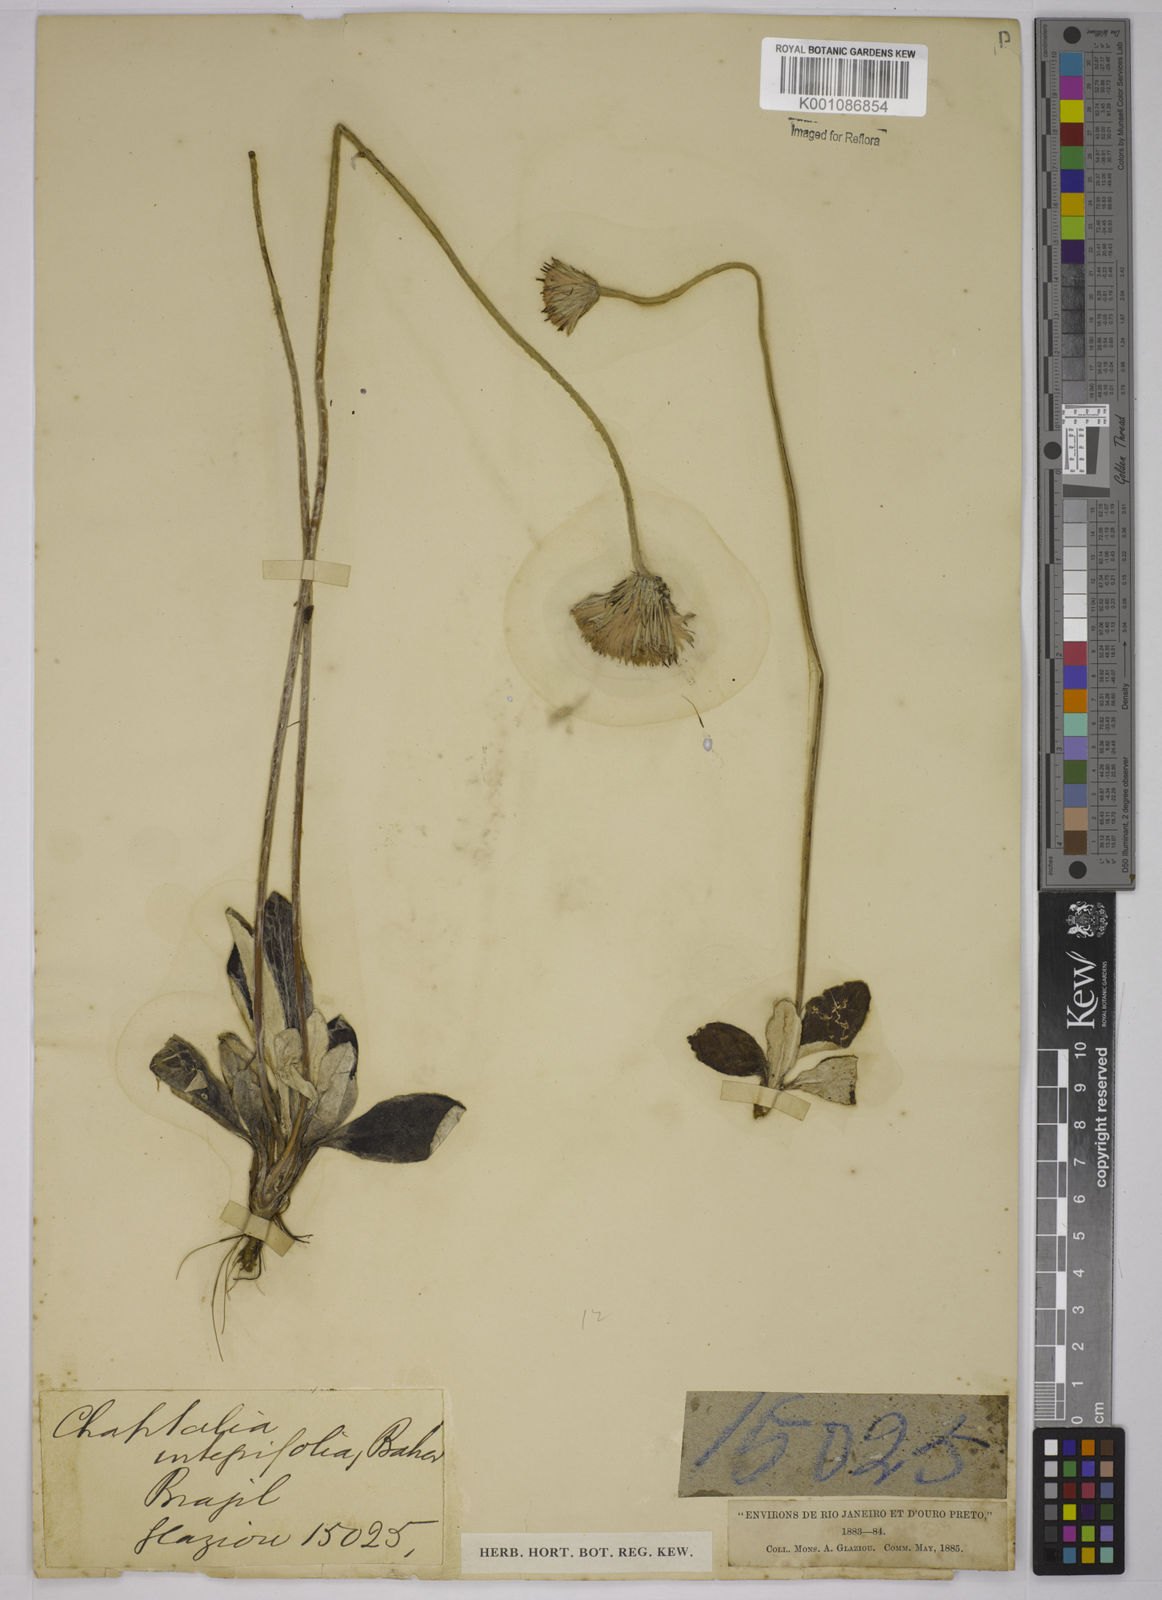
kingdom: Plantae
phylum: Tracheophyta
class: Magnoliopsida
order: Asterales
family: Asteraceae
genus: Chaptalia
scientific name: Chaptalia integerrima
